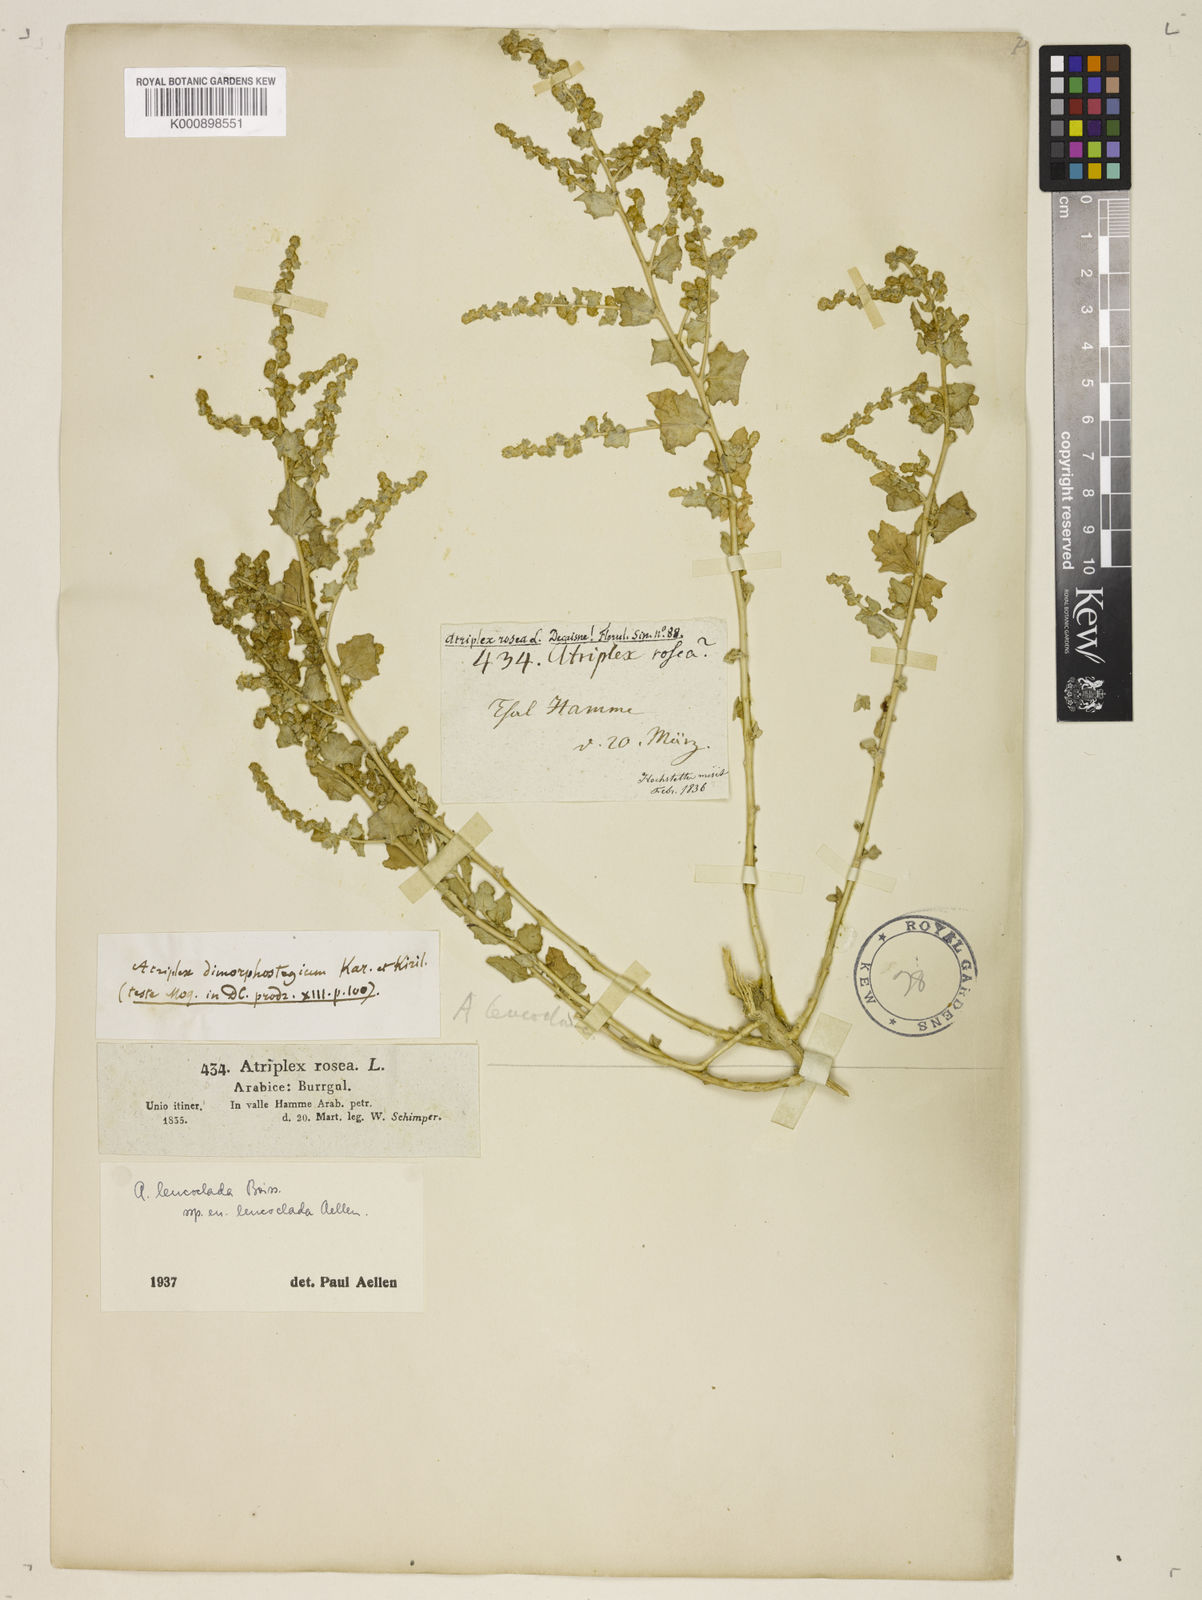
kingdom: Plantae
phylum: Tracheophyta
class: Magnoliopsida
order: Caryophyllales
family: Amaranthaceae
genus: Atriplex
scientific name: Atriplex turcomanica
